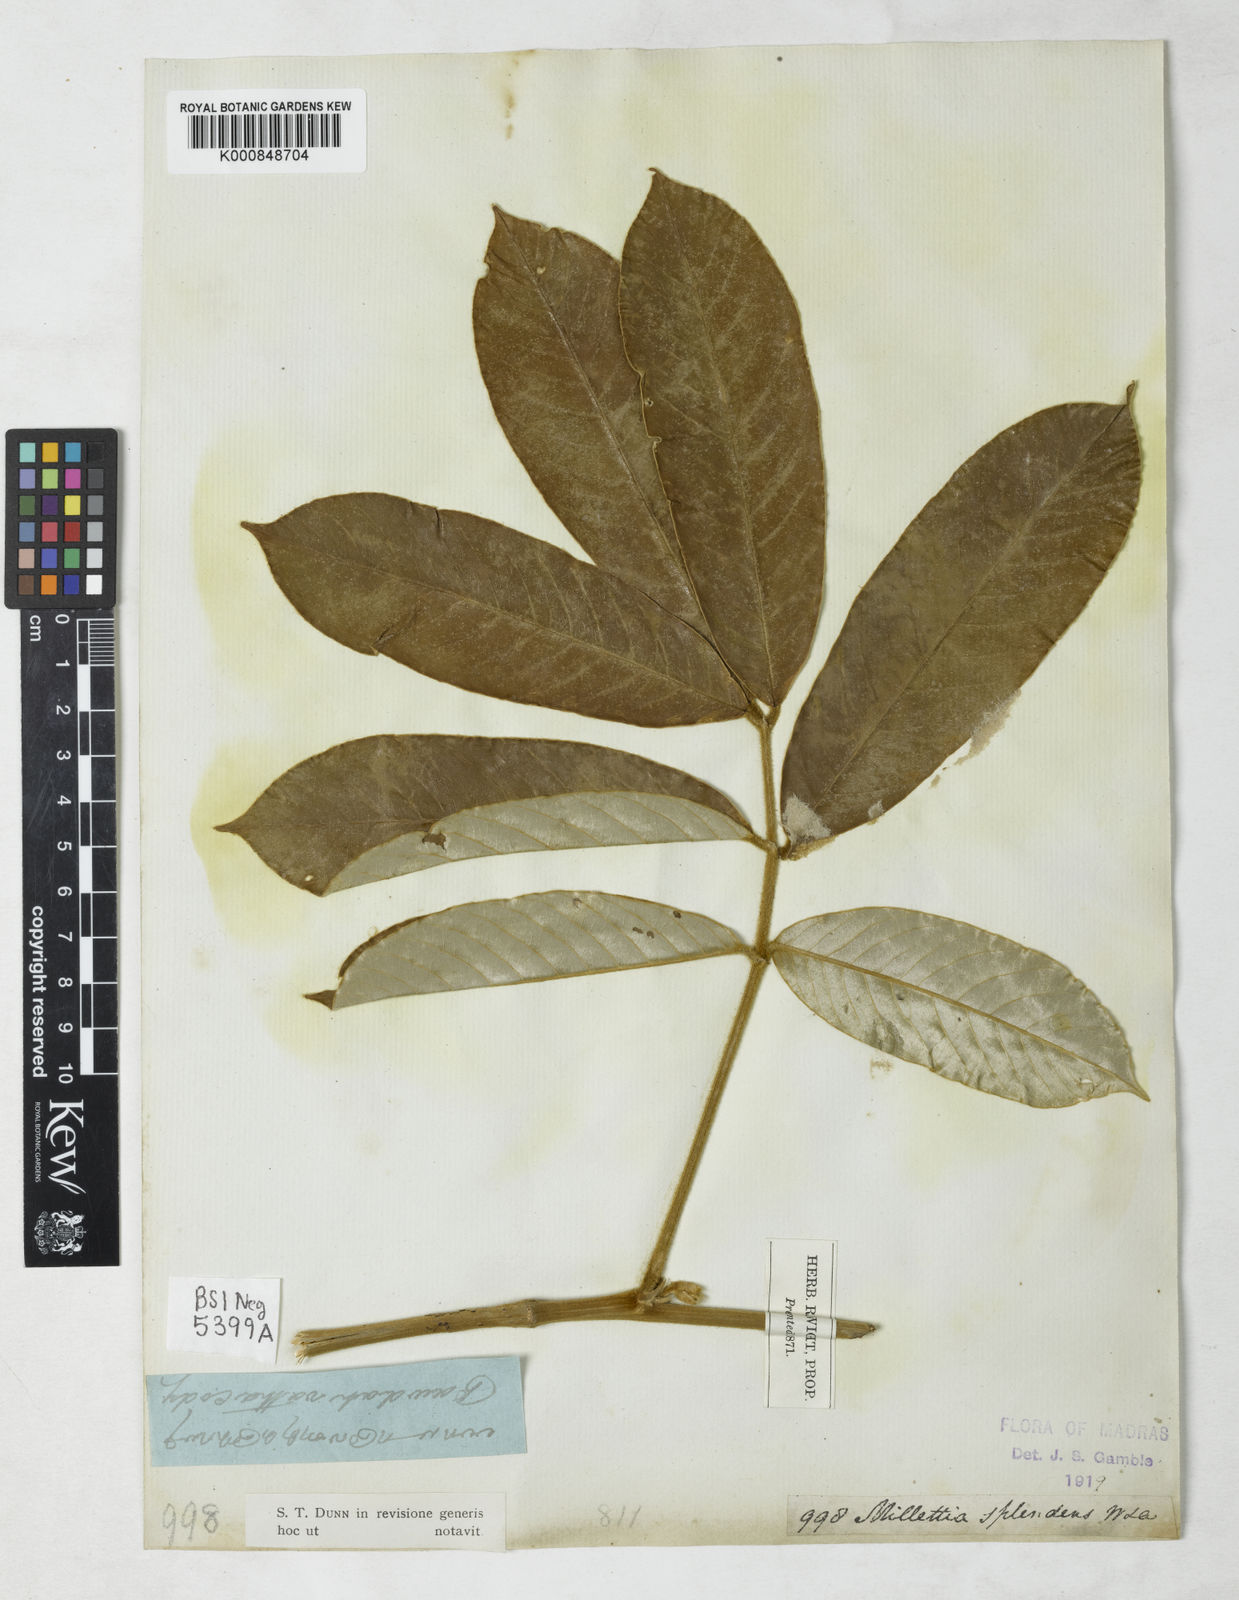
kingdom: Plantae
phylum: Tracheophyta
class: Magnoliopsida
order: Fabales
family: Fabaceae
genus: Millettia
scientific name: Millettia splendens
